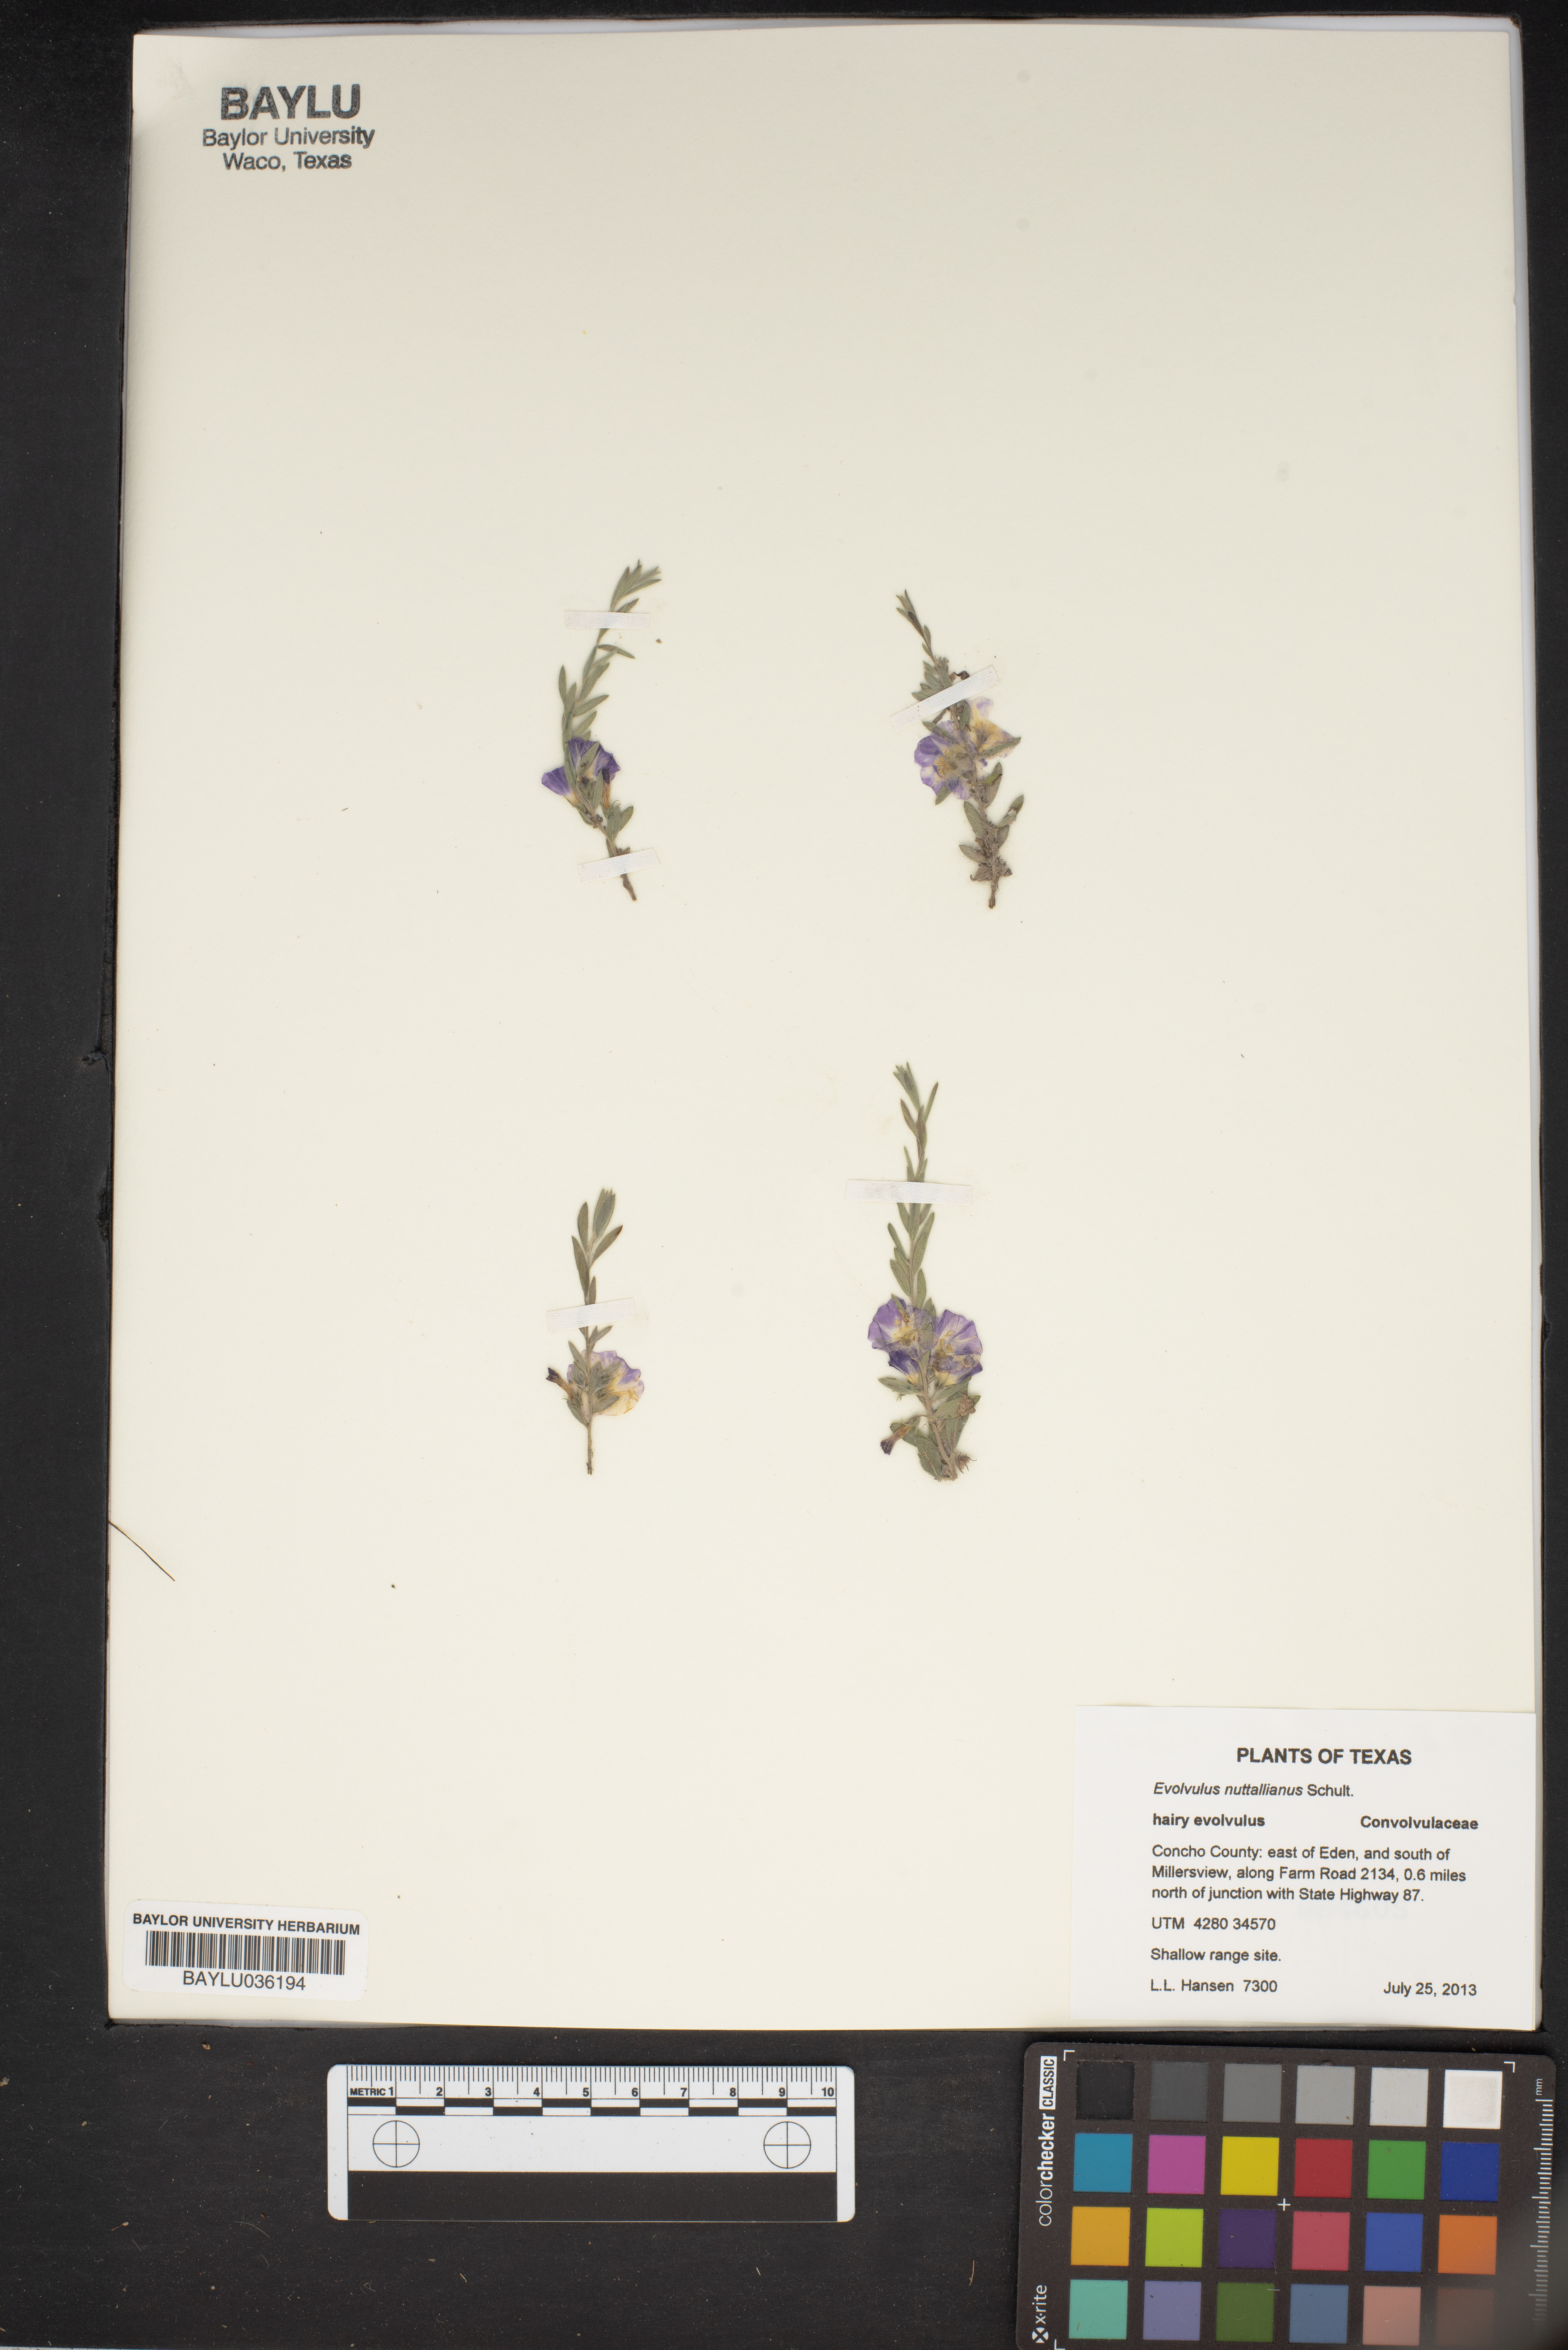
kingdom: Plantae
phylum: Tracheophyta
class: Magnoliopsida
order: Solanales
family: Convolvulaceae
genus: Evolvulus
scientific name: Evolvulus nuttallianus
